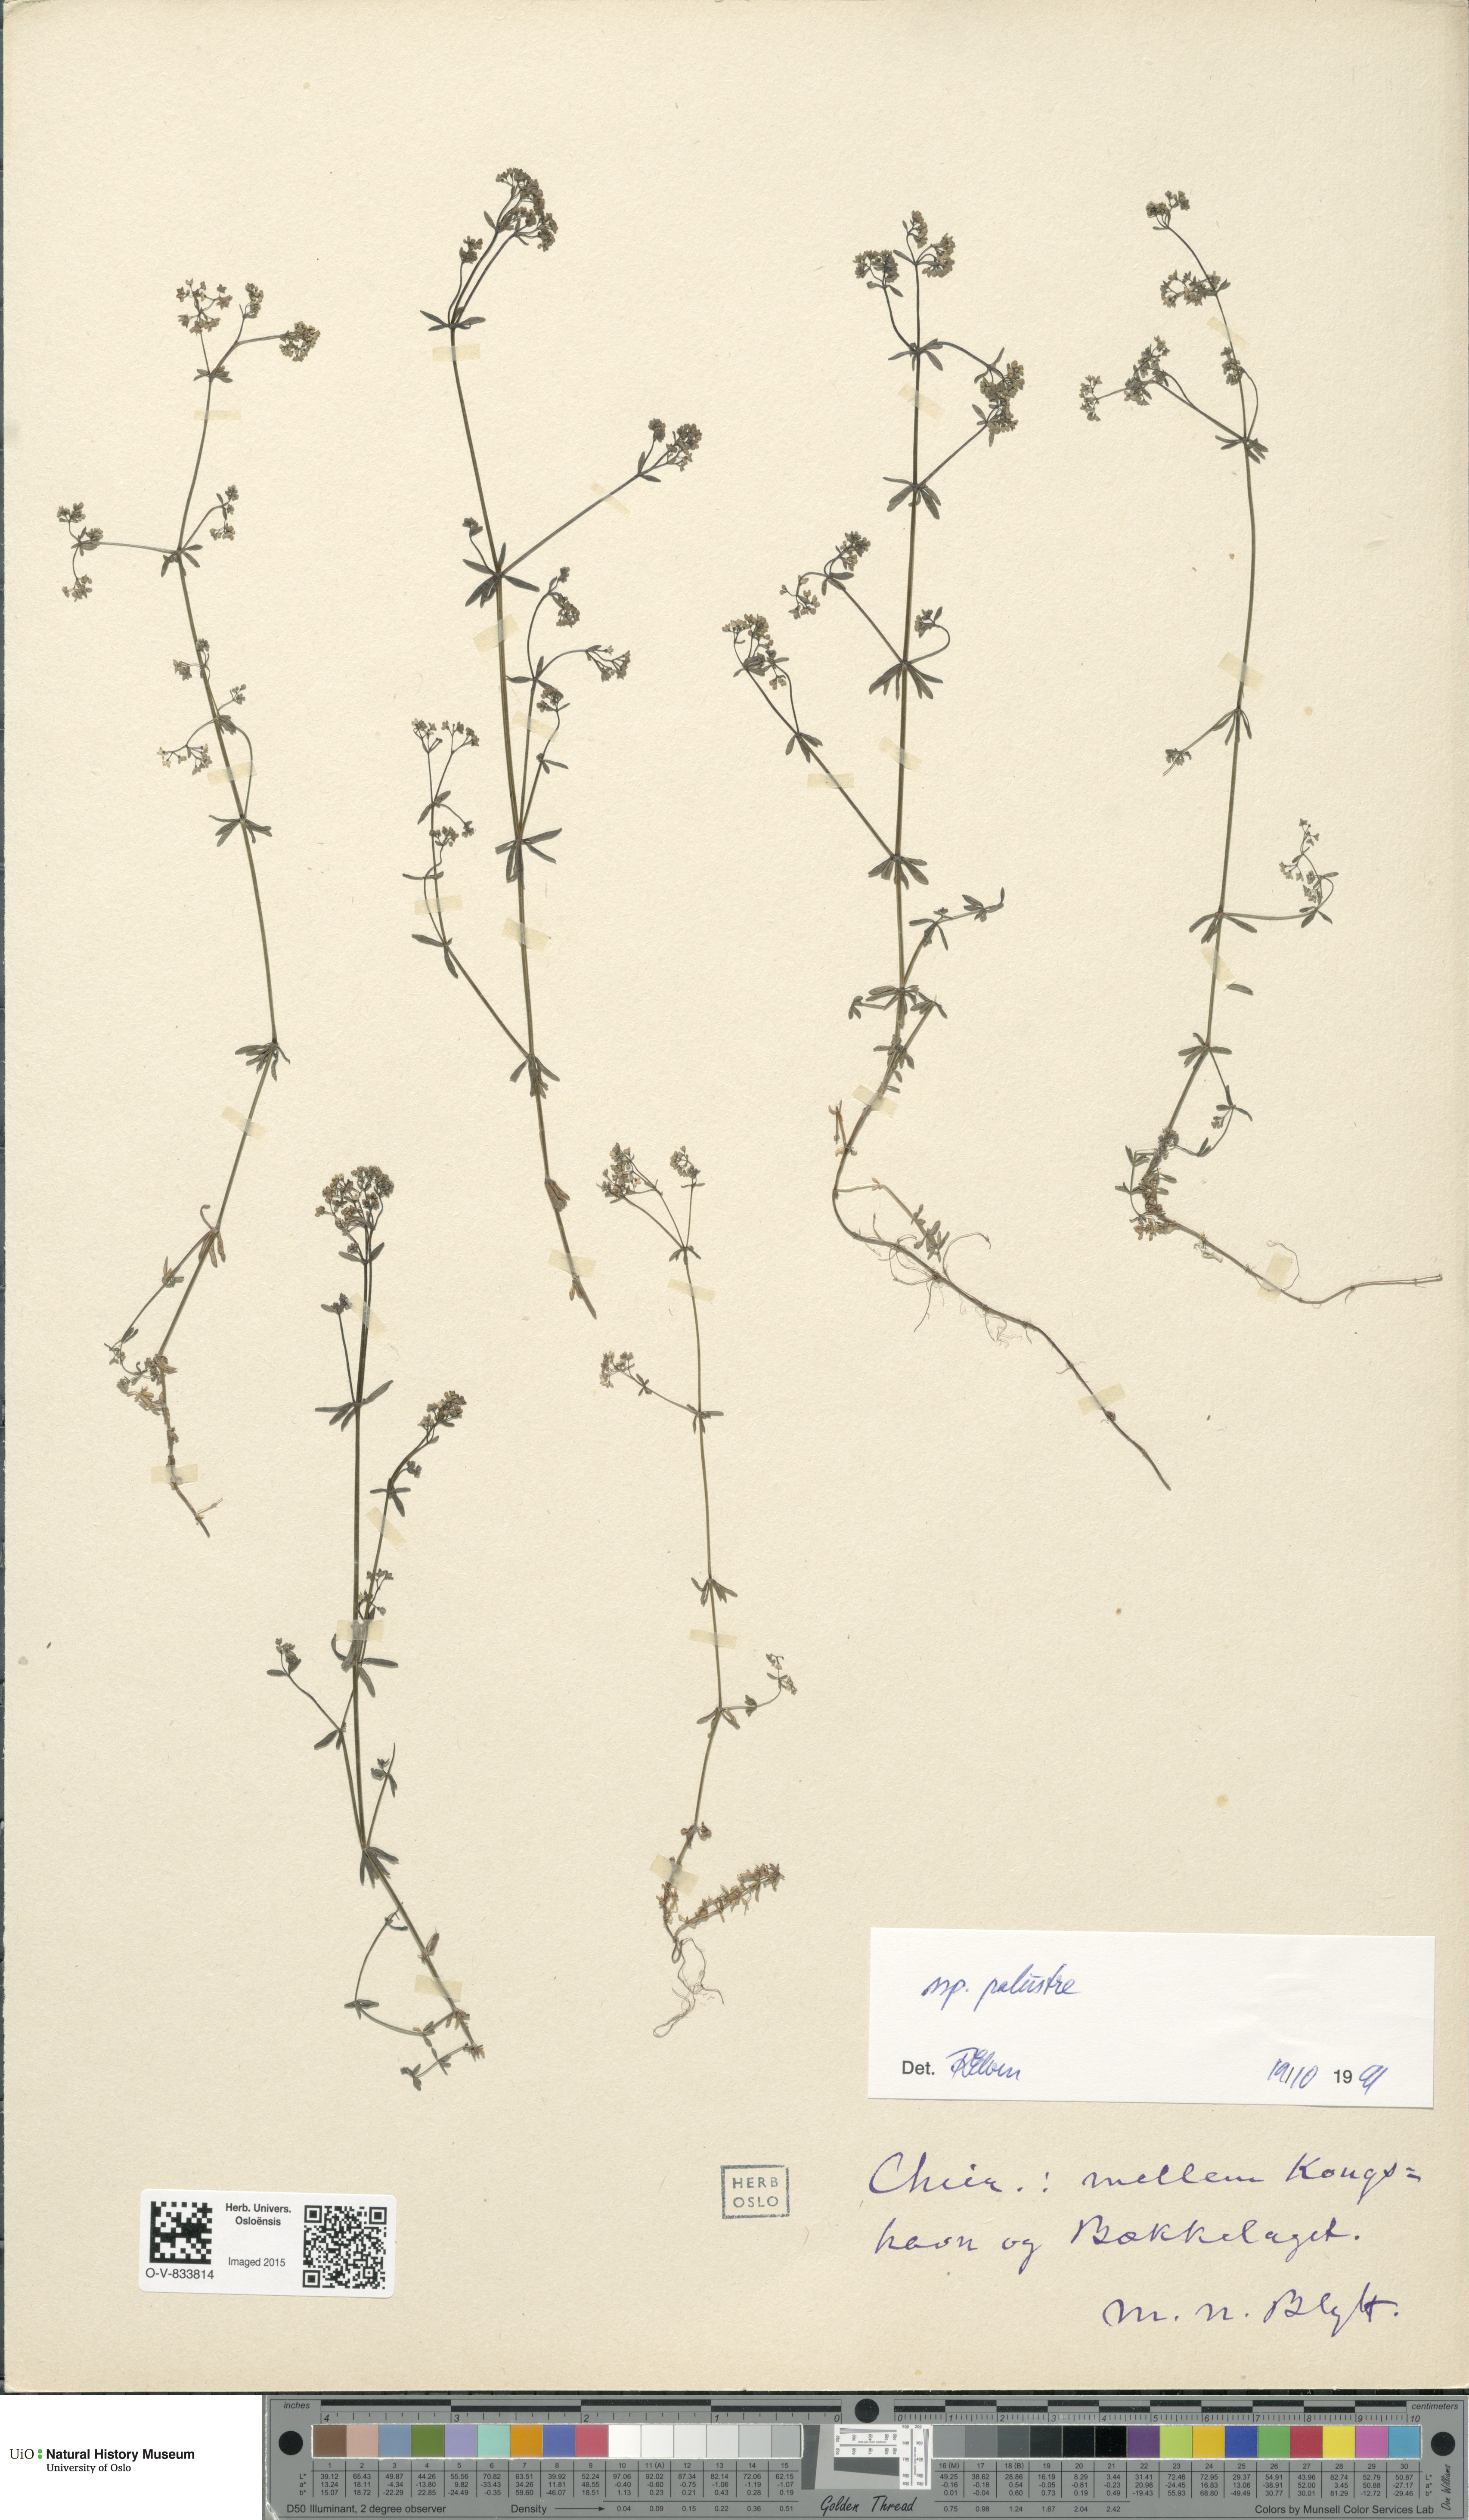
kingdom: Plantae
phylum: Tracheophyta
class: Magnoliopsida
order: Gentianales
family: Rubiaceae
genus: Galium
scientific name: Galium palustre
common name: Common marsh-bedstraw
